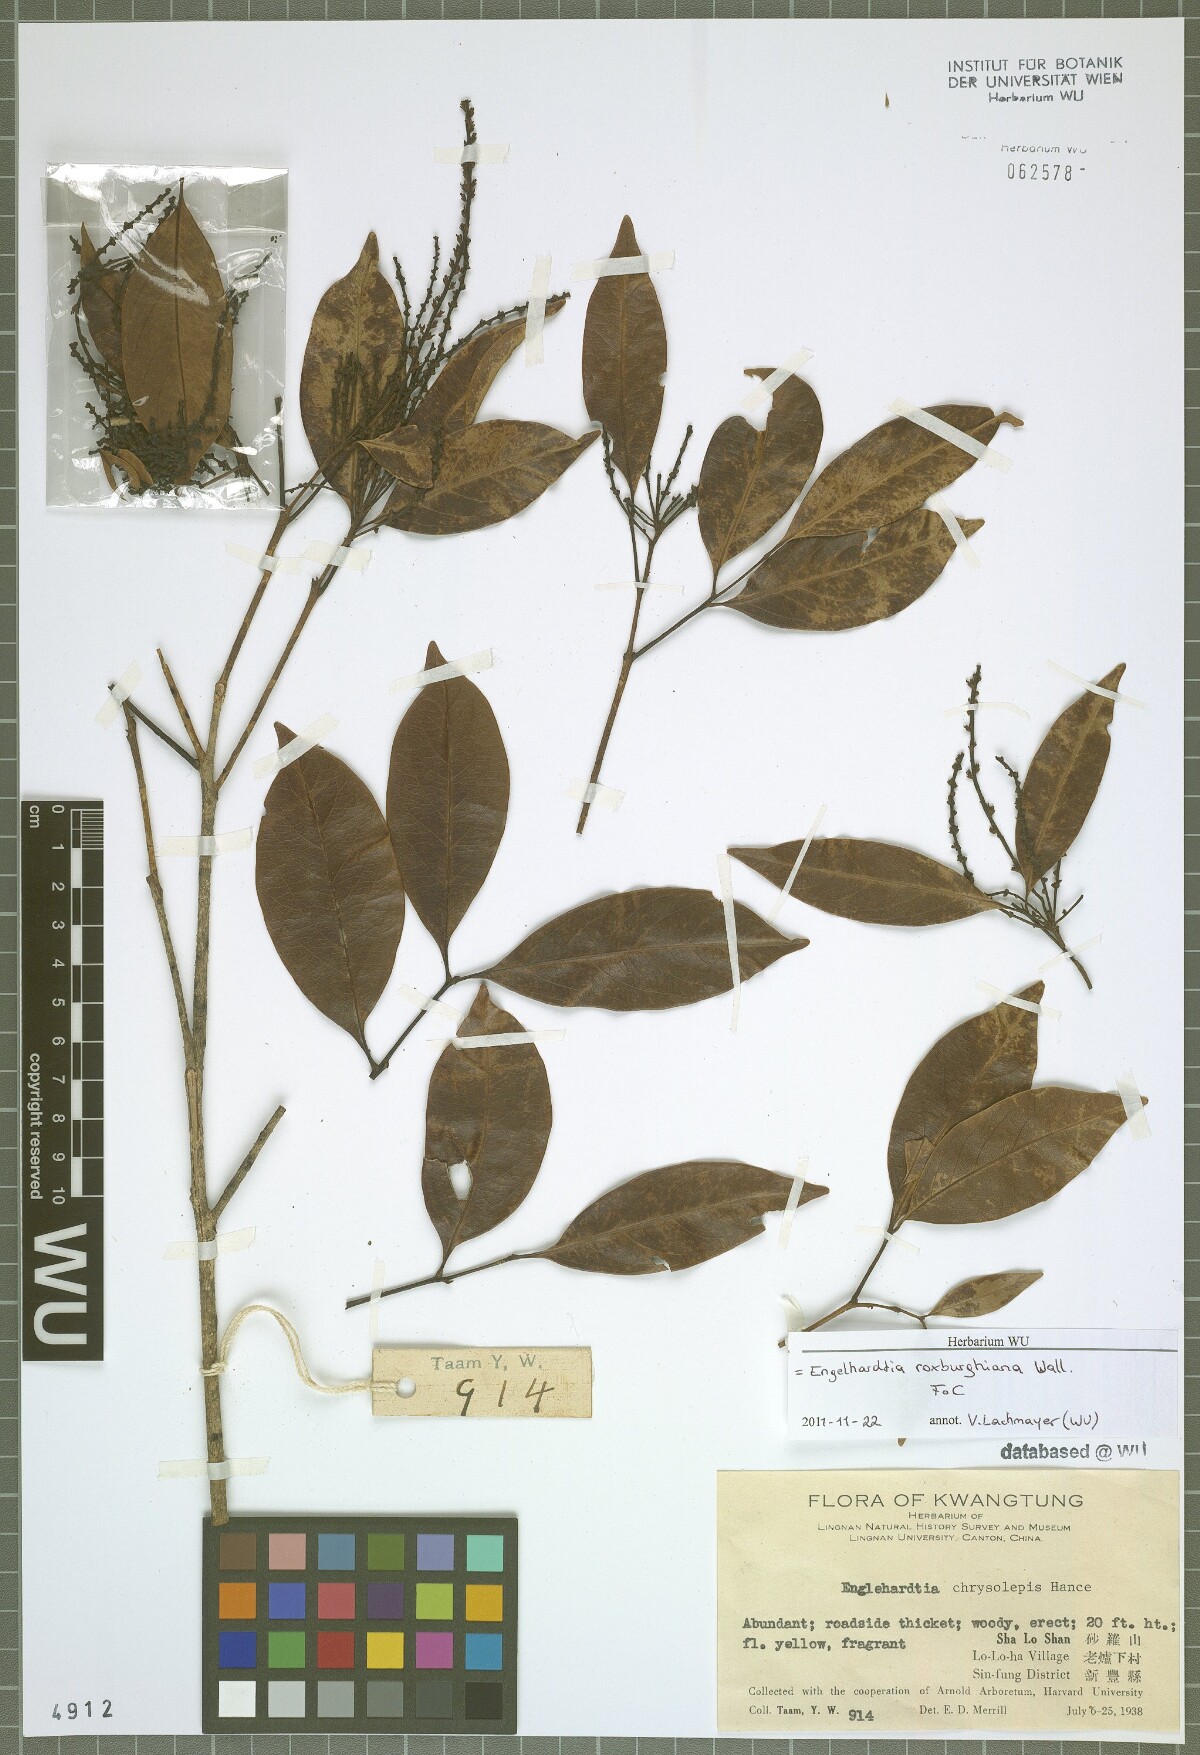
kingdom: Plantae
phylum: Tracheophyta
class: Magnoliopsida
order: Fagales
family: Juglandaceae
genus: Engelhardia
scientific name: Engelhardia roxburghiana
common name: Golden malay beam
